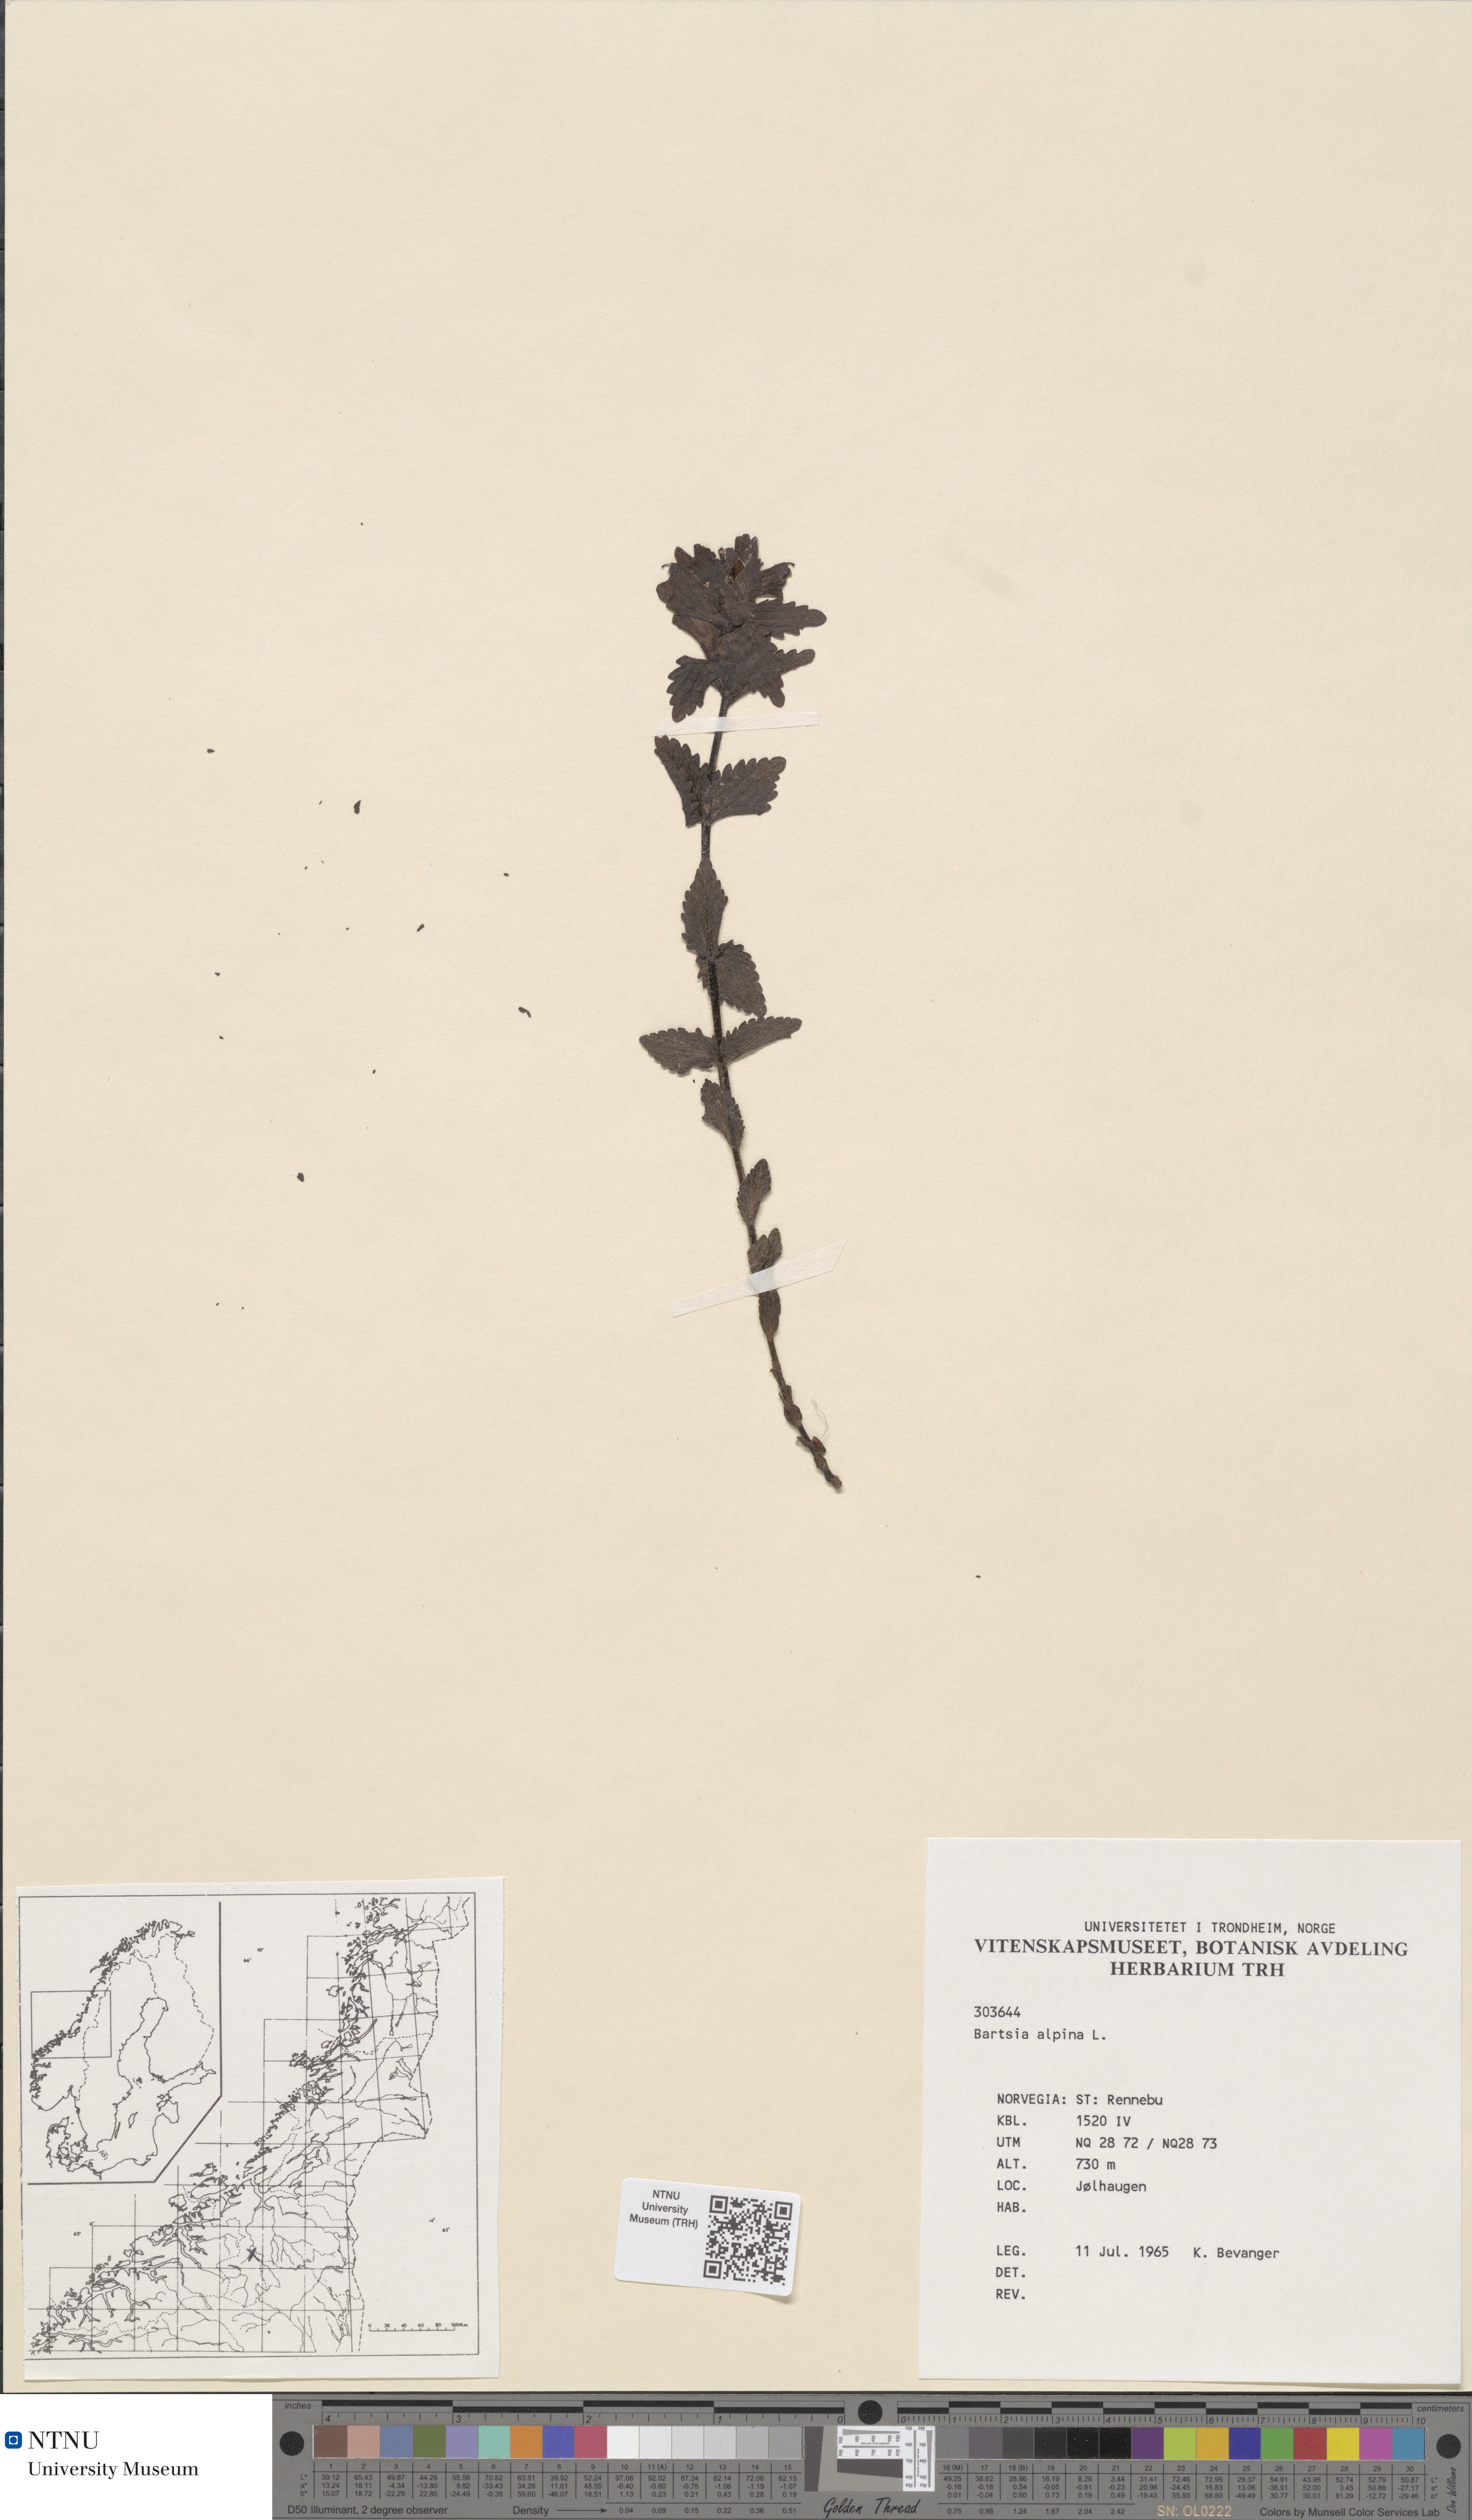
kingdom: Plantae
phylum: Tracheophyta
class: Magnoliopsida
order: Lamiales
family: Orobanchaceae
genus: Bartsia
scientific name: Bartsia alpina
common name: Alpine bartsia
